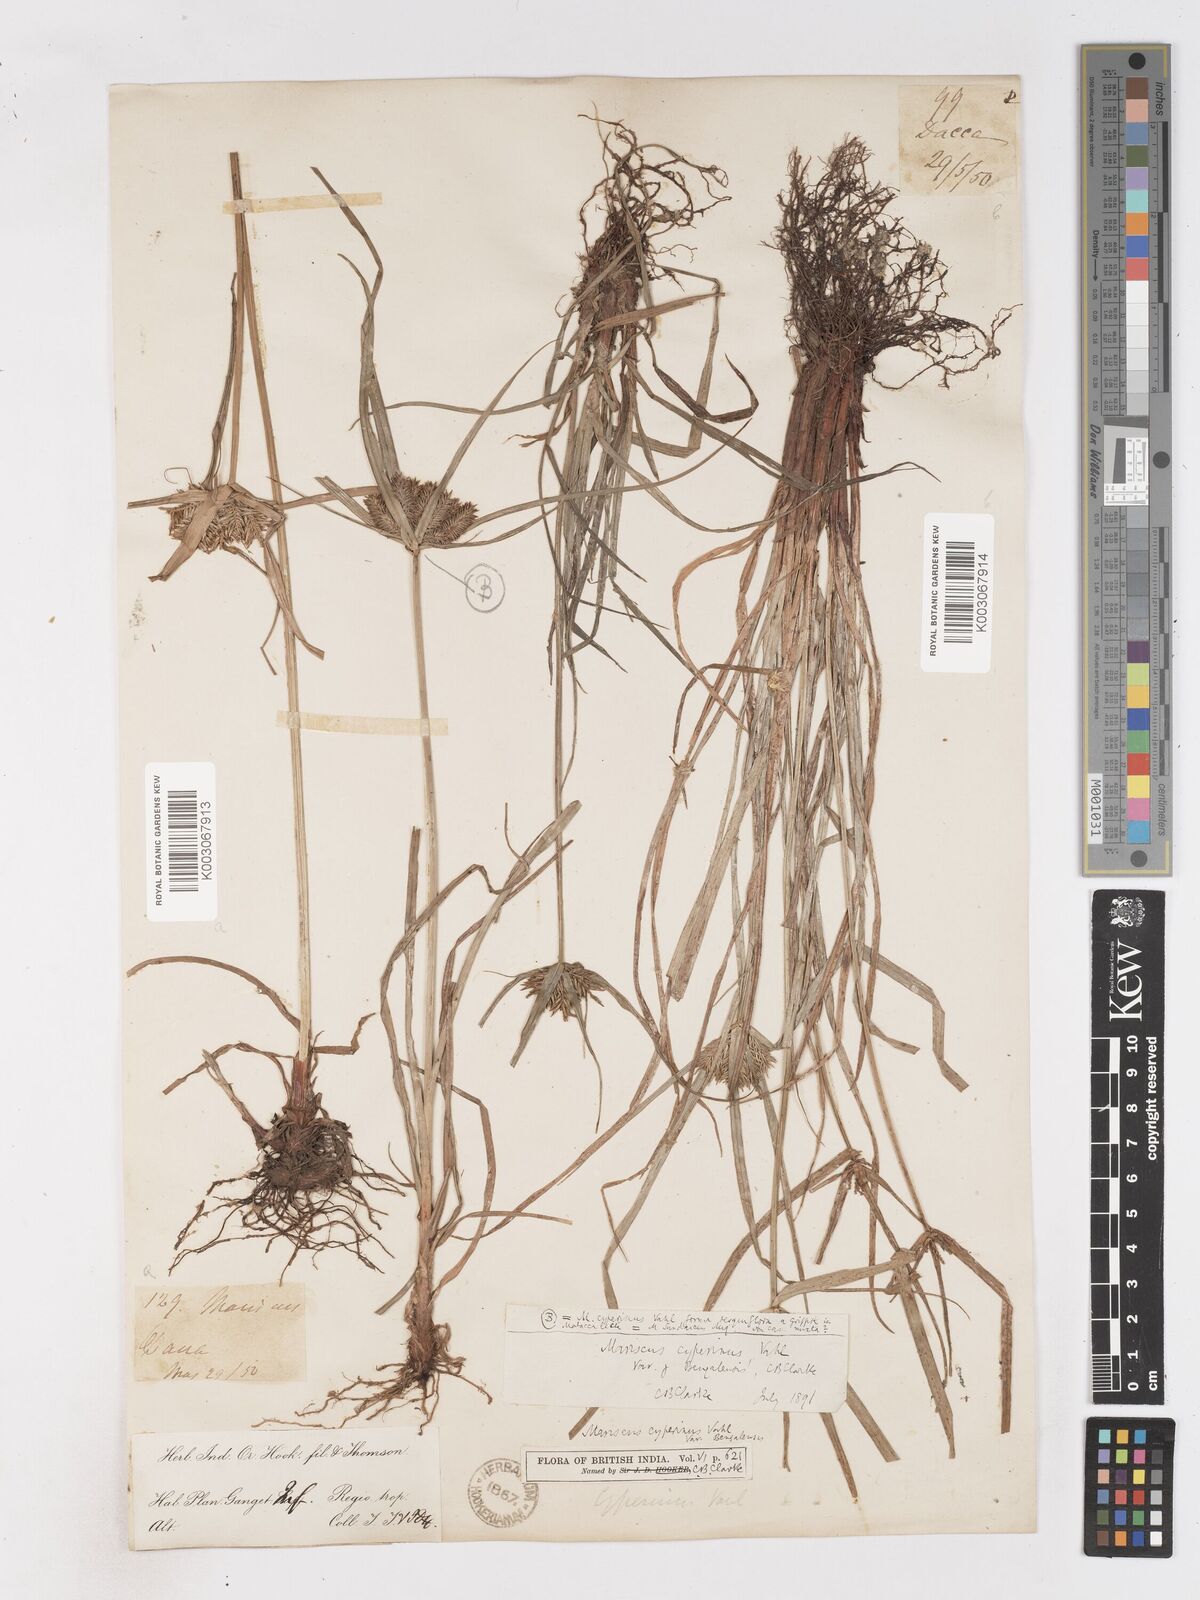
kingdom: Plantae
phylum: Tracheophyta
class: Liliopsida
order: Poales
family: Cyperaceae
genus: Cyperus
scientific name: Cyperus cyperinus
